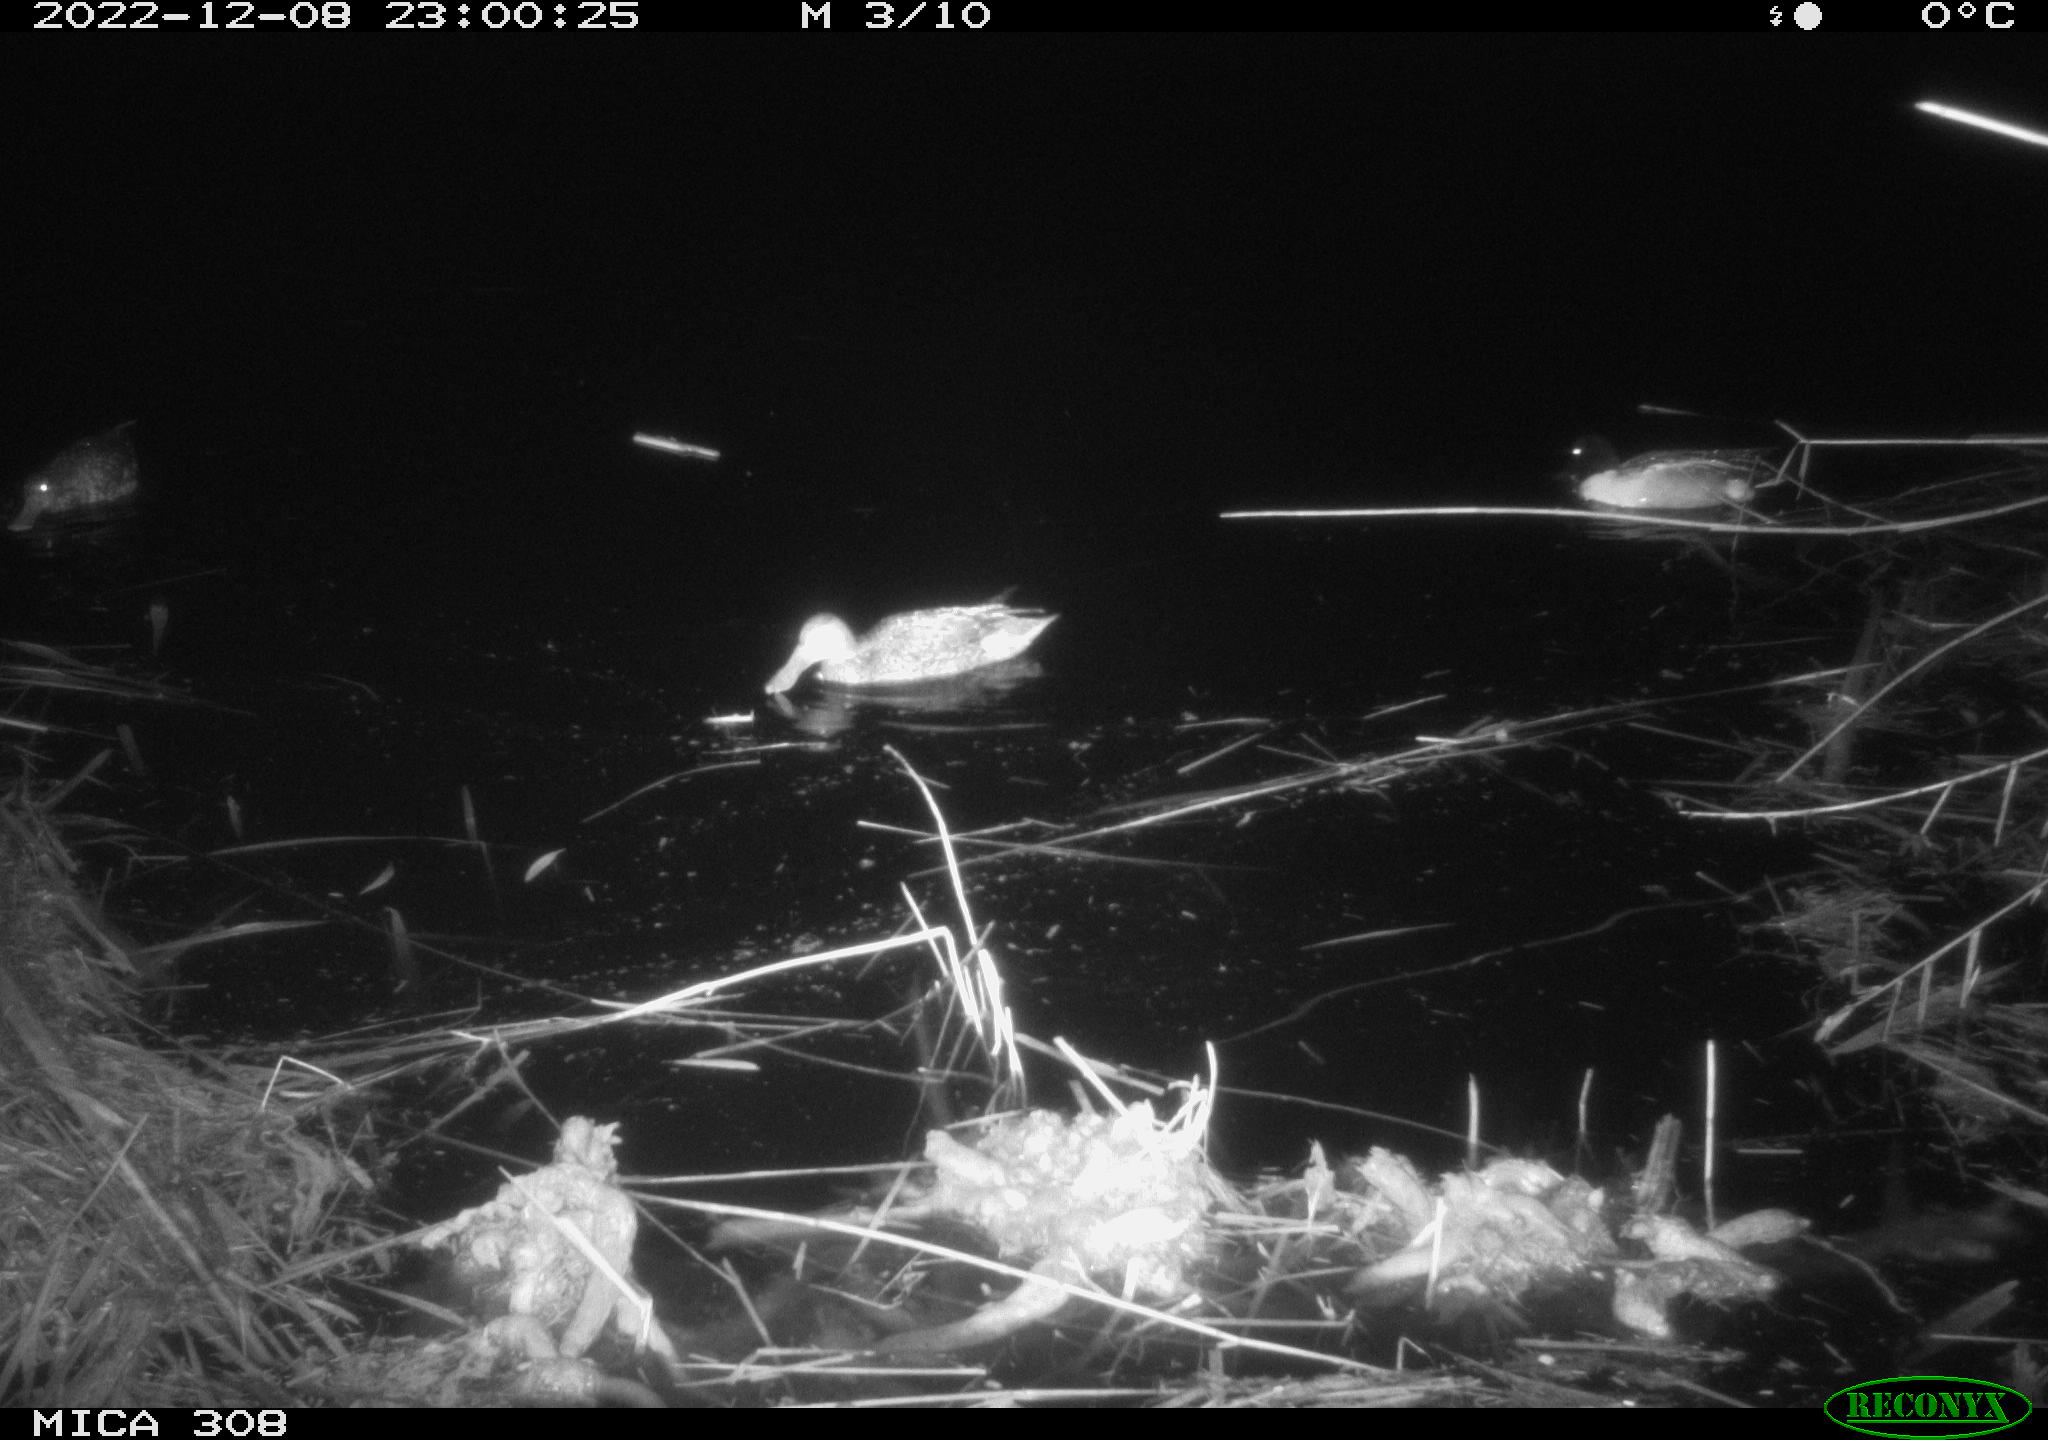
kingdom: Animalia
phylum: Chordata
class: Aves
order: Anseriformes
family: Anatidae
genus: Anas
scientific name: Anas
